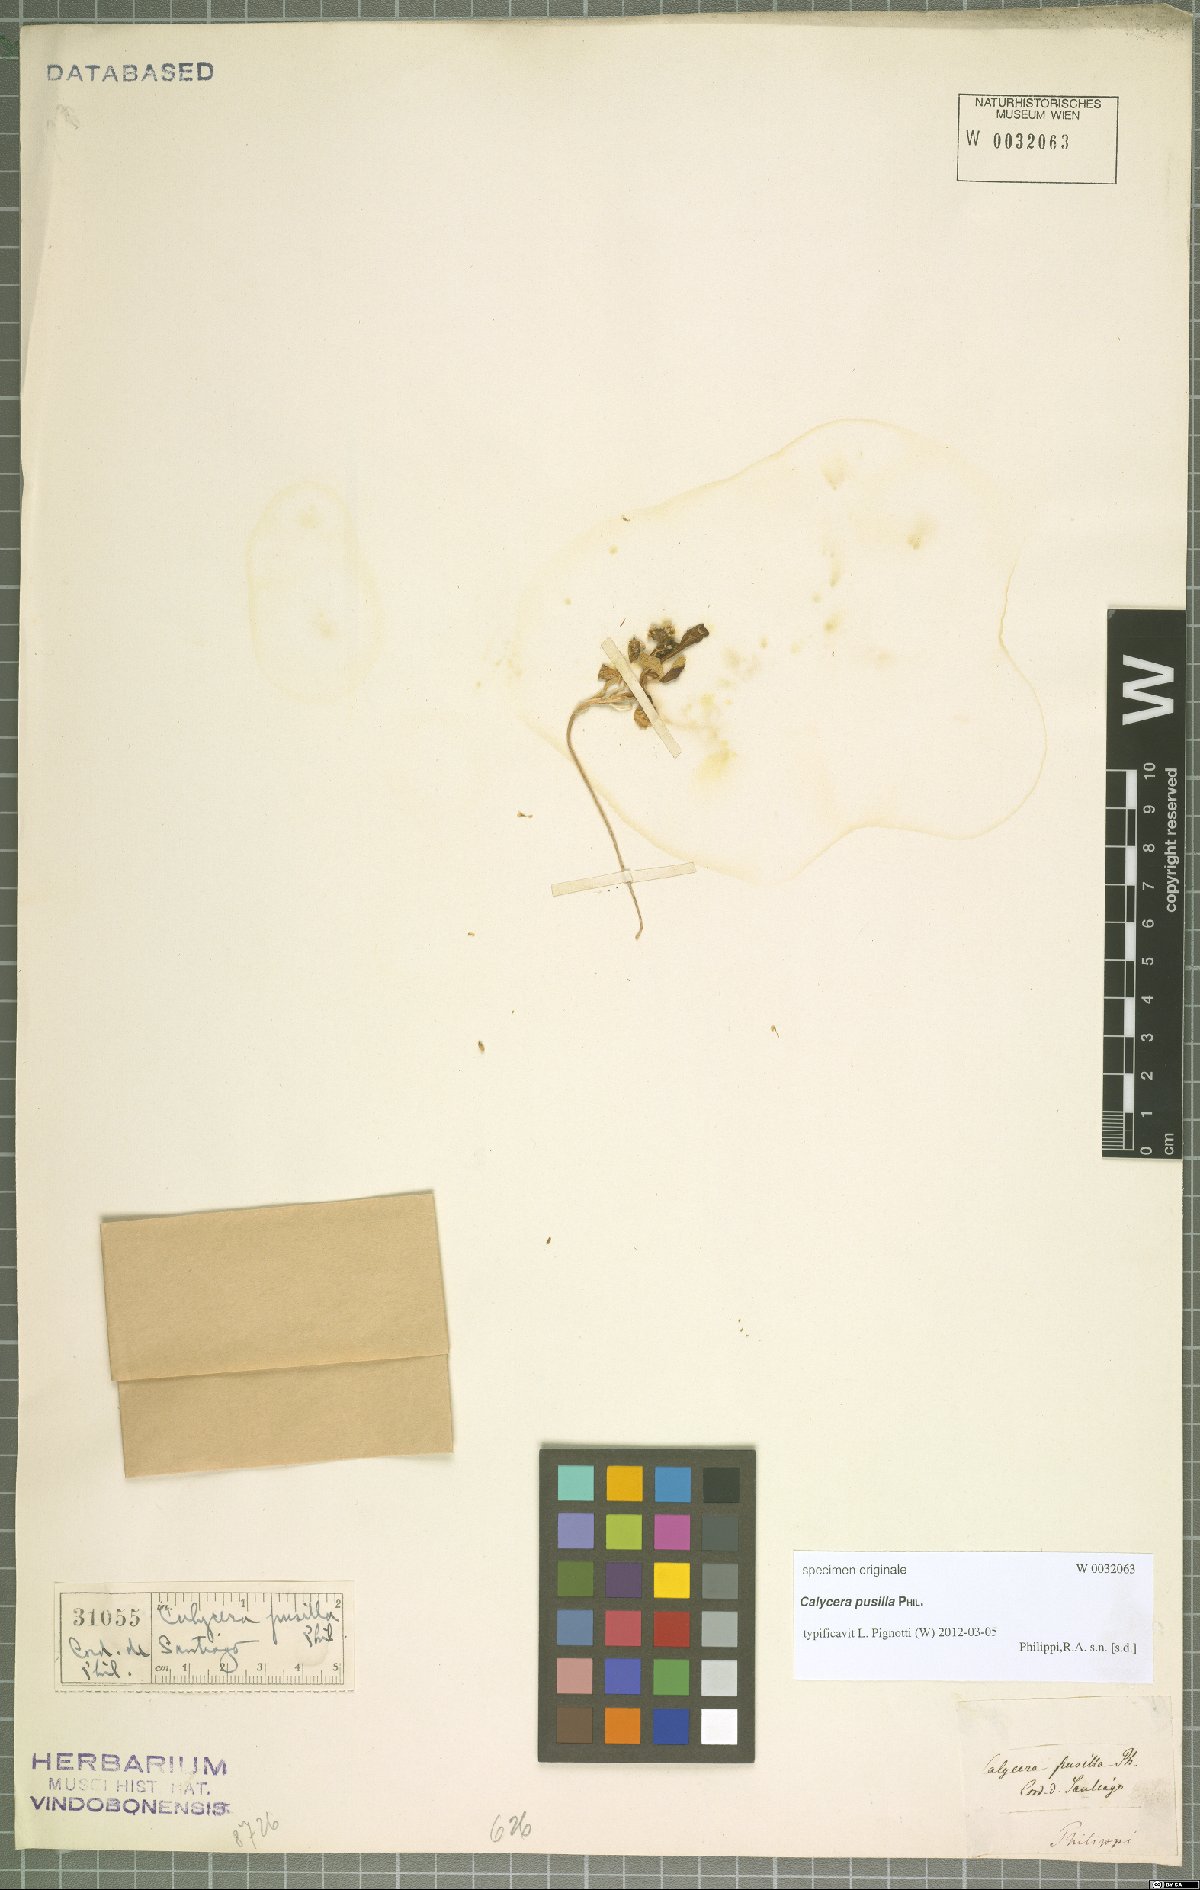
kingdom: Plantae
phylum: Tracheophyta
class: Magnoliopsida
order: Asterales
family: Calyceraceae
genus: Calycera
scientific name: Calycera pusilla
